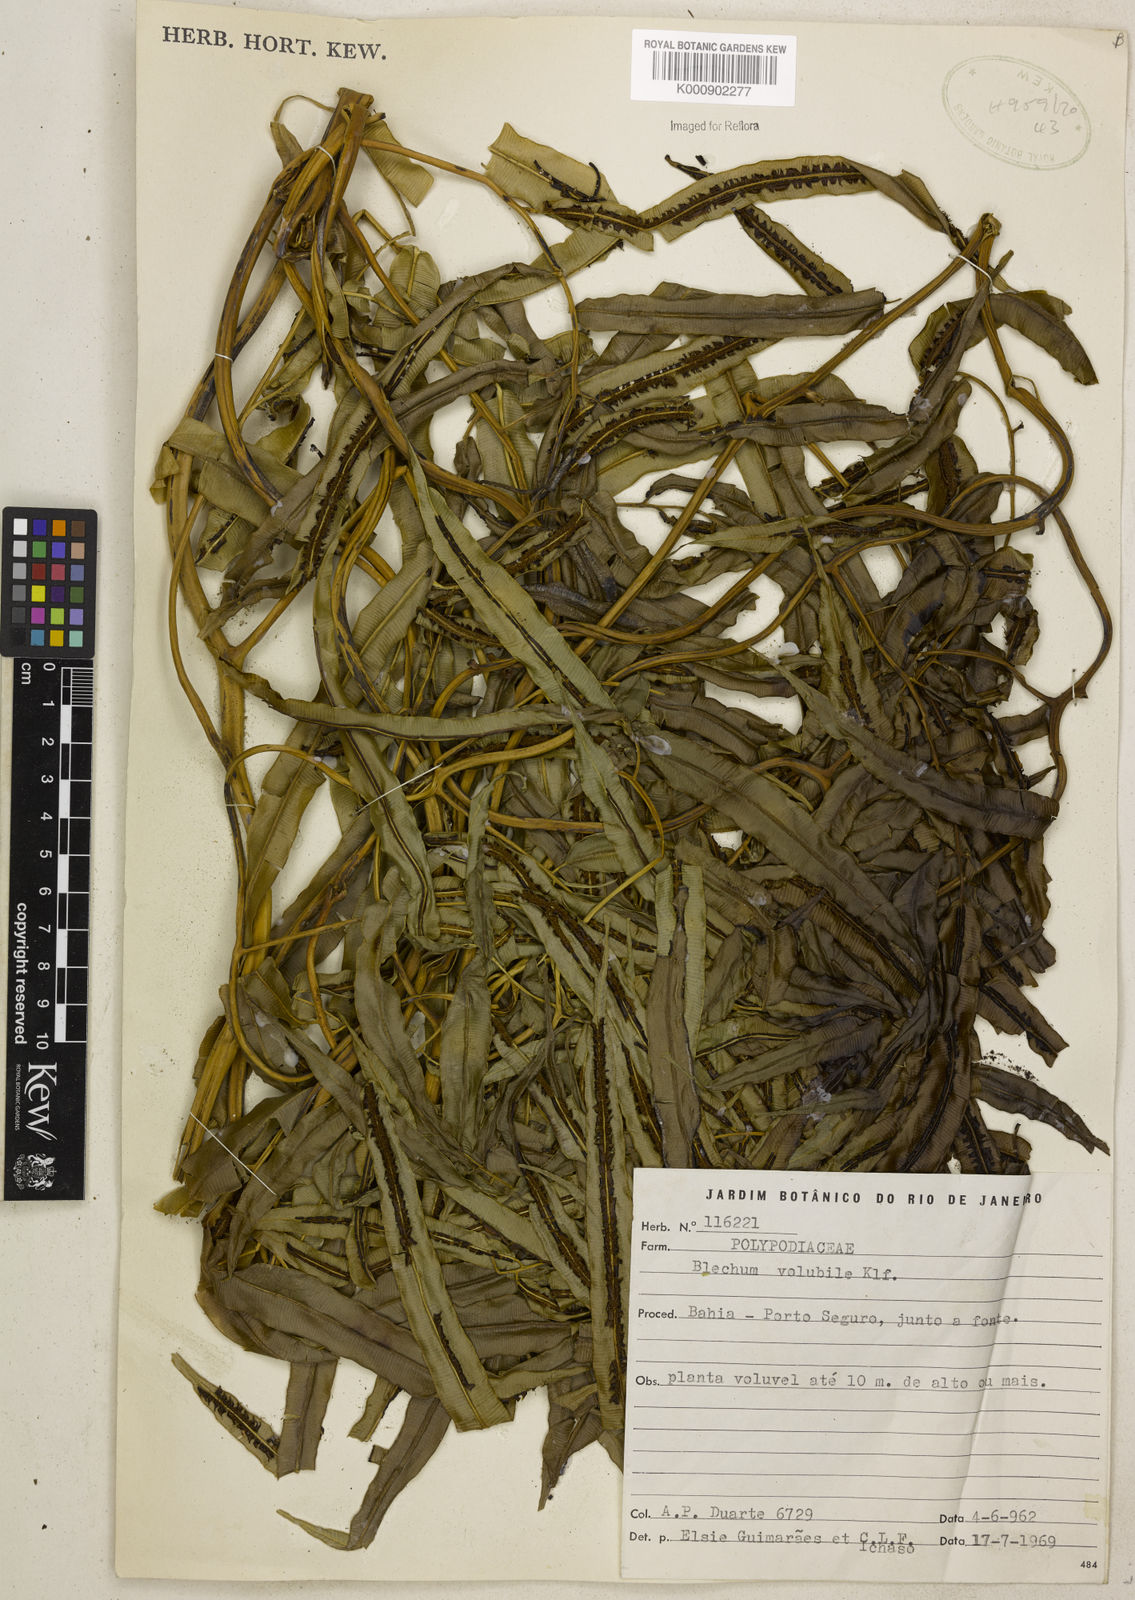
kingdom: Plantae
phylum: Tracheophyta
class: Polypodiopsida
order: Polypodiales
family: Blechnaceae
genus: Salpichlaena
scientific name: Salpichlaena volubilis
